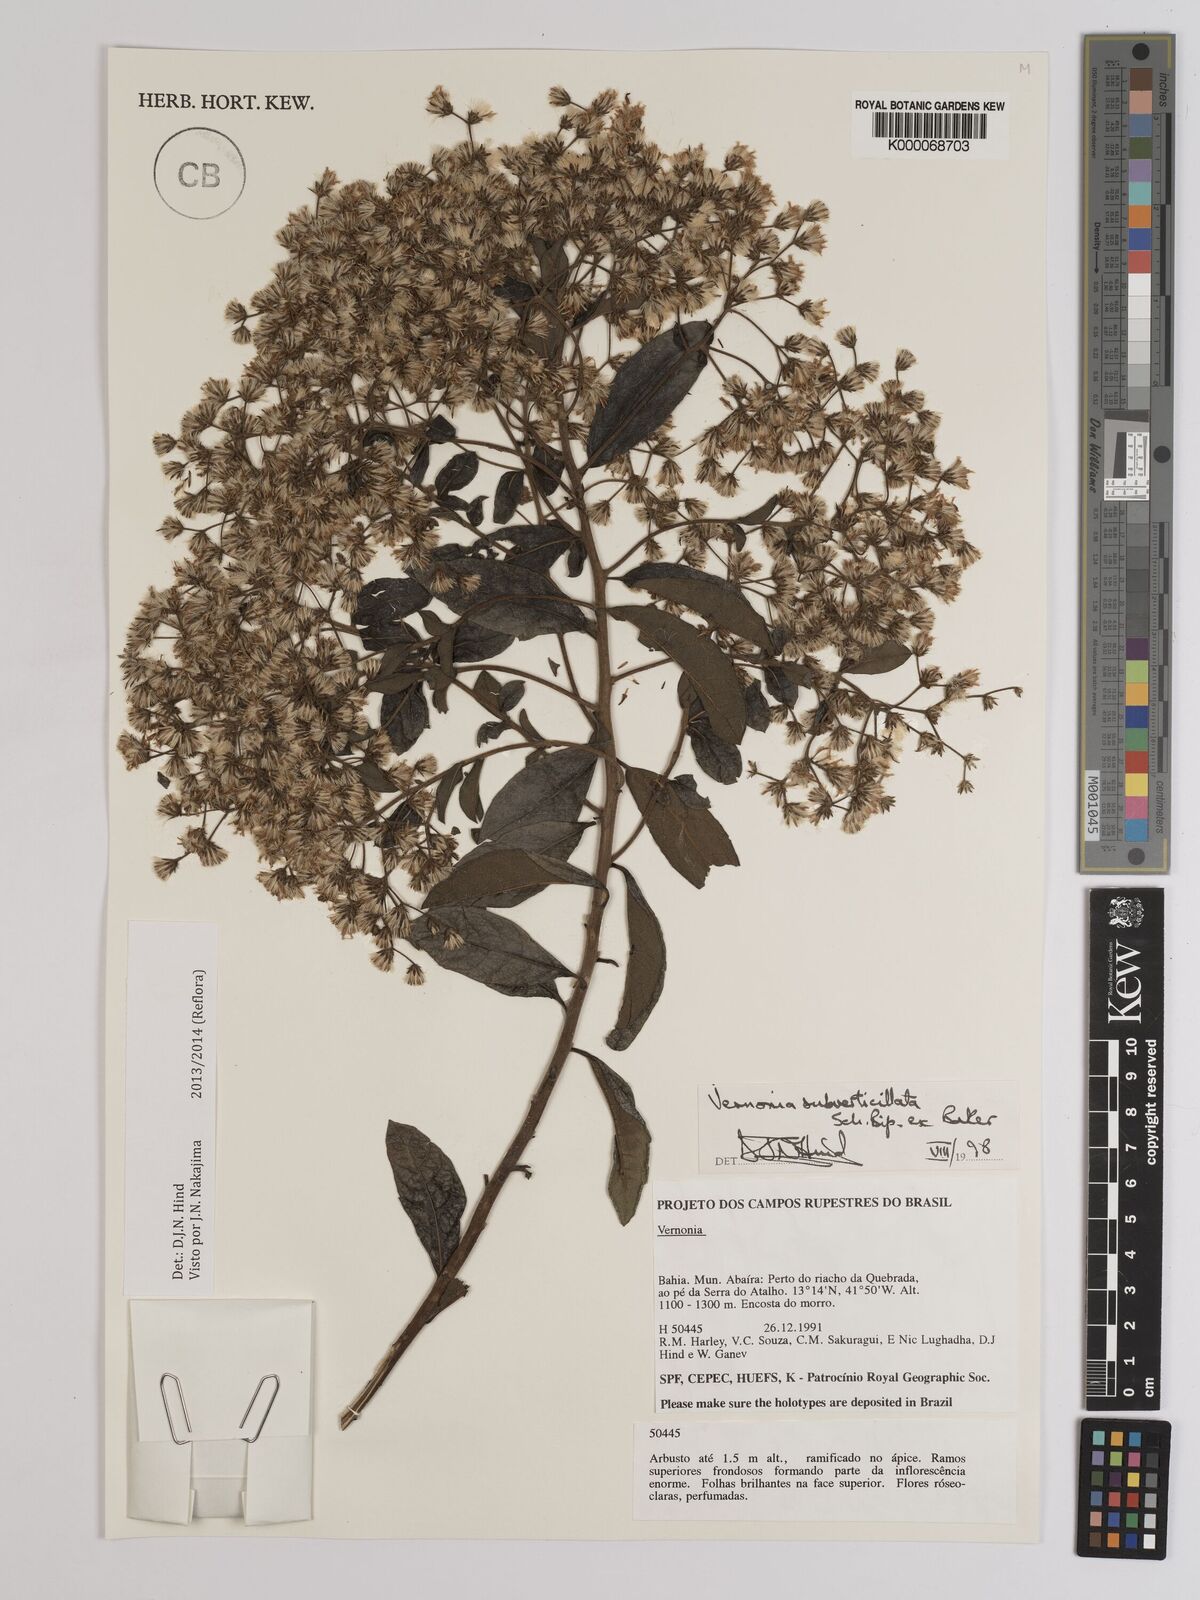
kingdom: Plantae
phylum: Tracheophyta
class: Magnoliopsida
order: Asterales
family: Asteraceae
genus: Vernonia
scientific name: Vernonia
